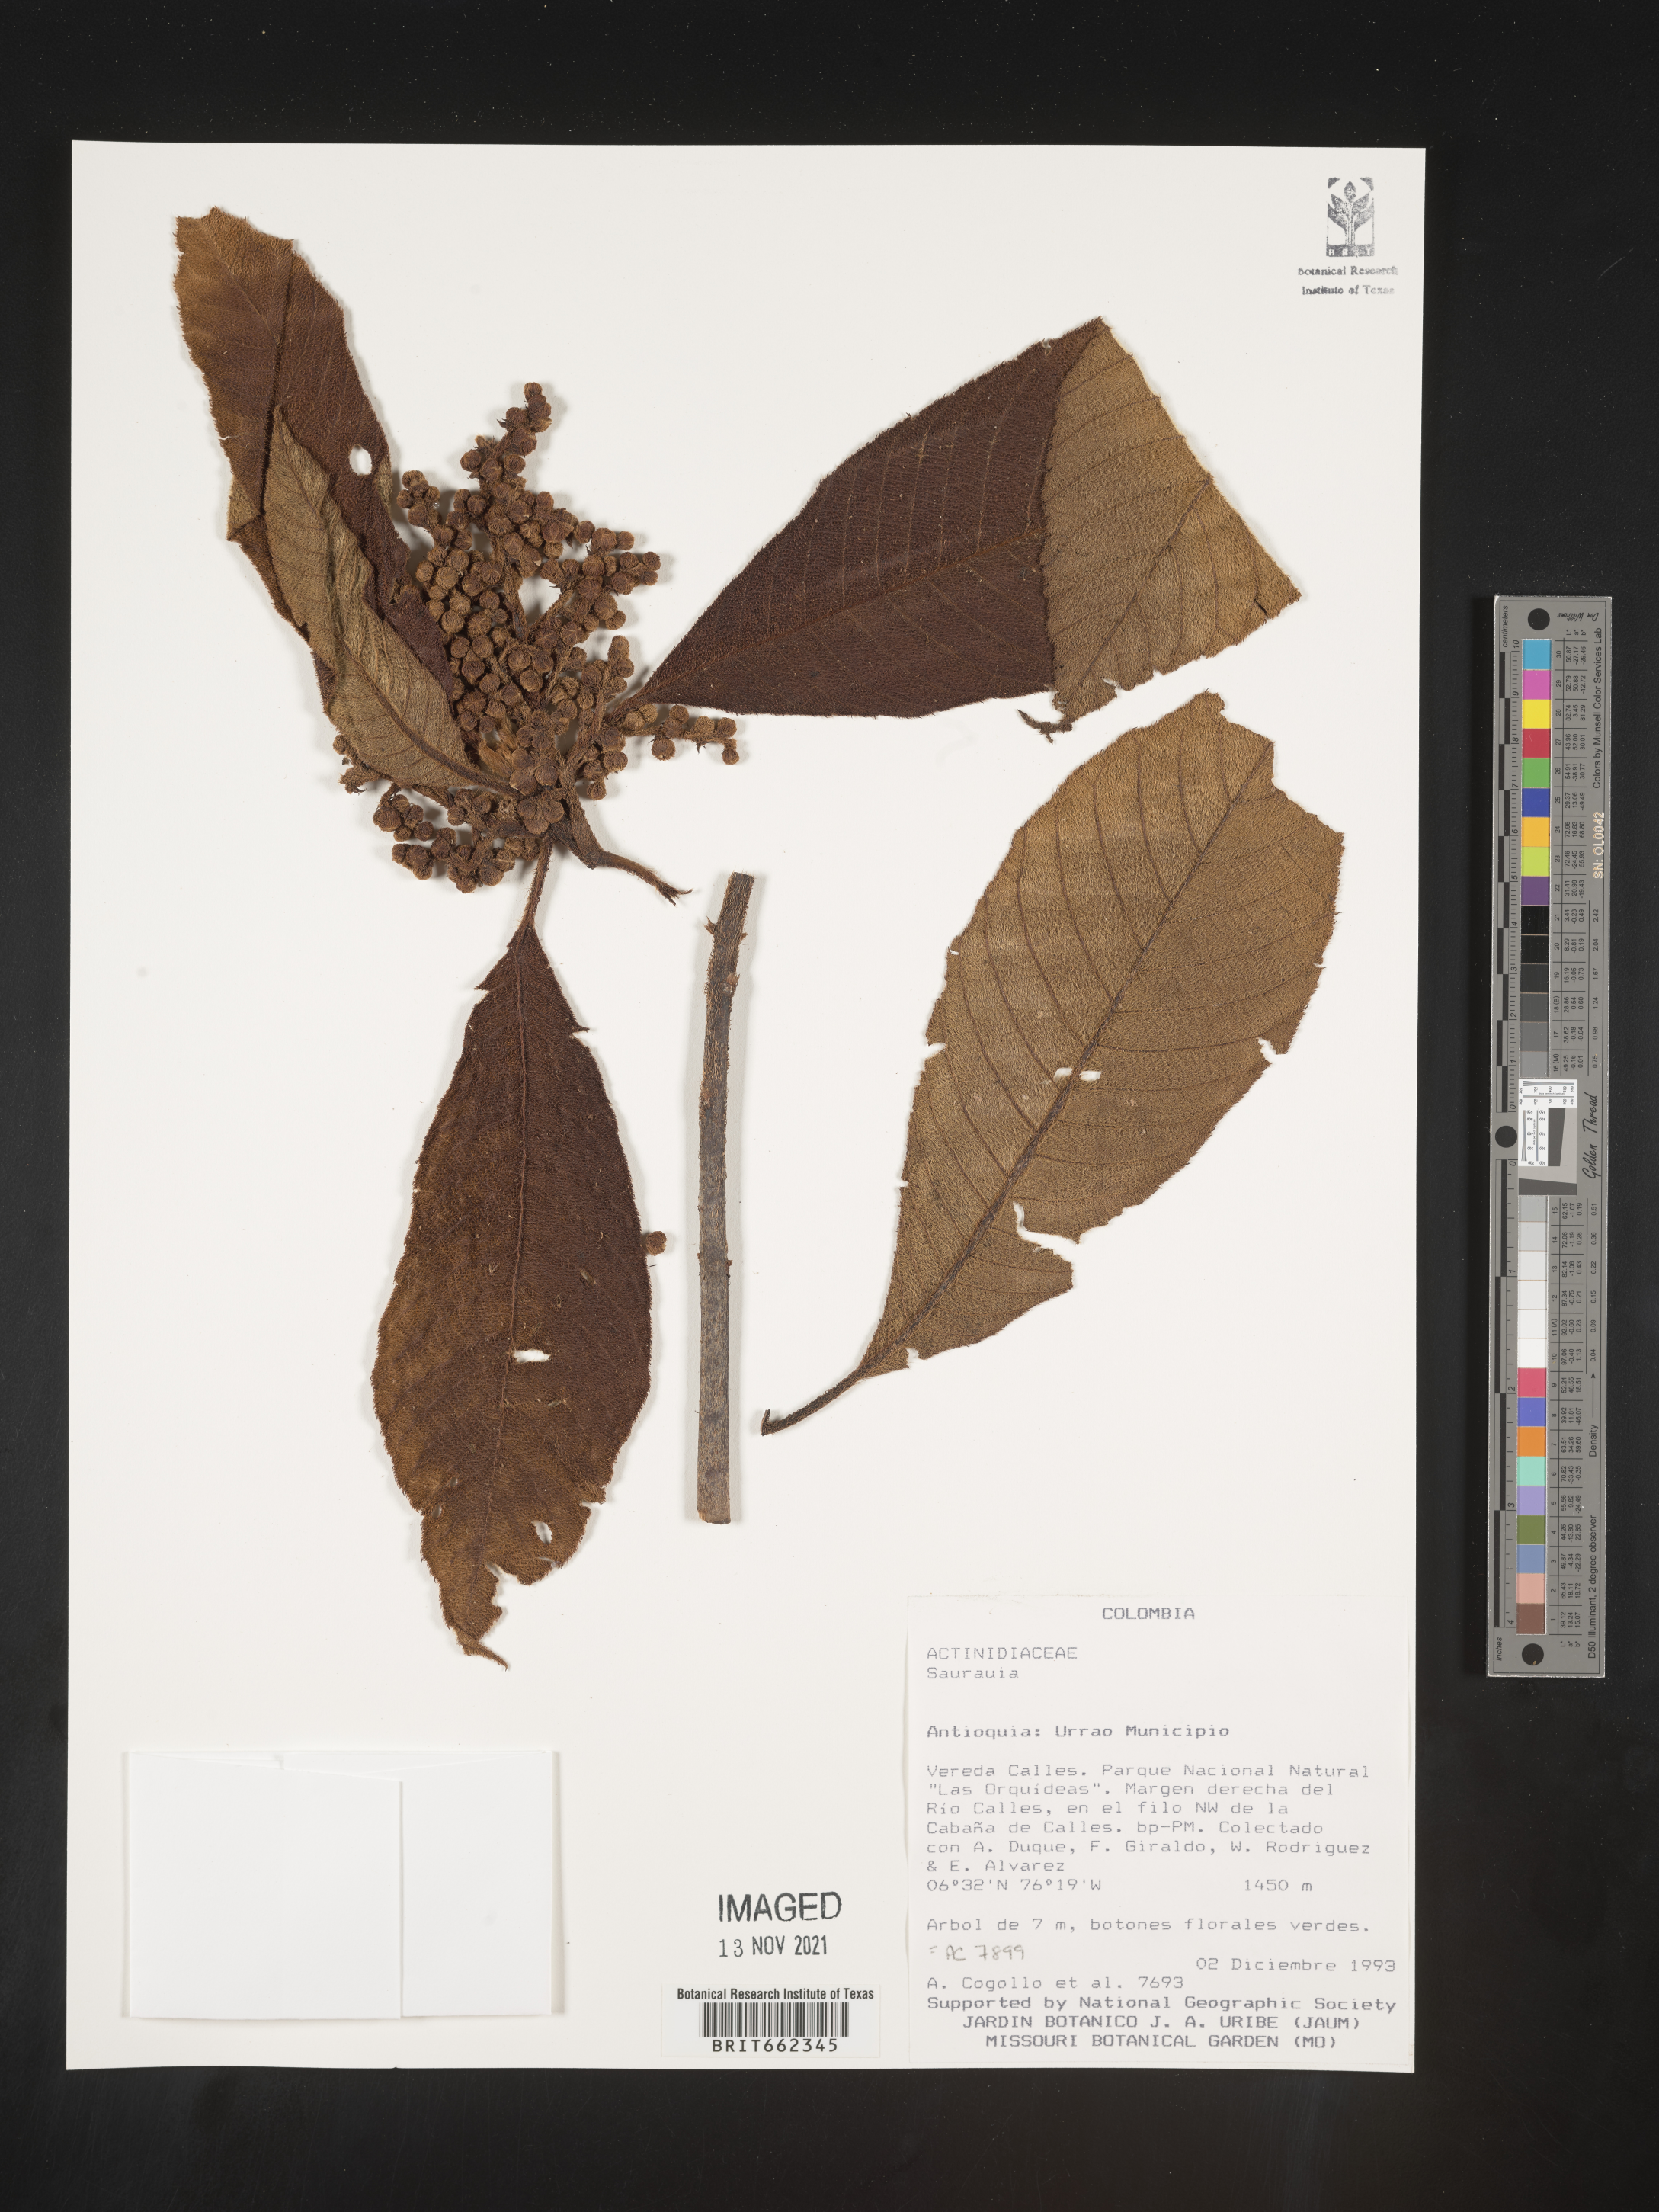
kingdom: Plantae
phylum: Tracheophyta
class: Magnoliopsida
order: Ericales
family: Actinidiaceae
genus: Saurauia
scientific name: Saurauia
